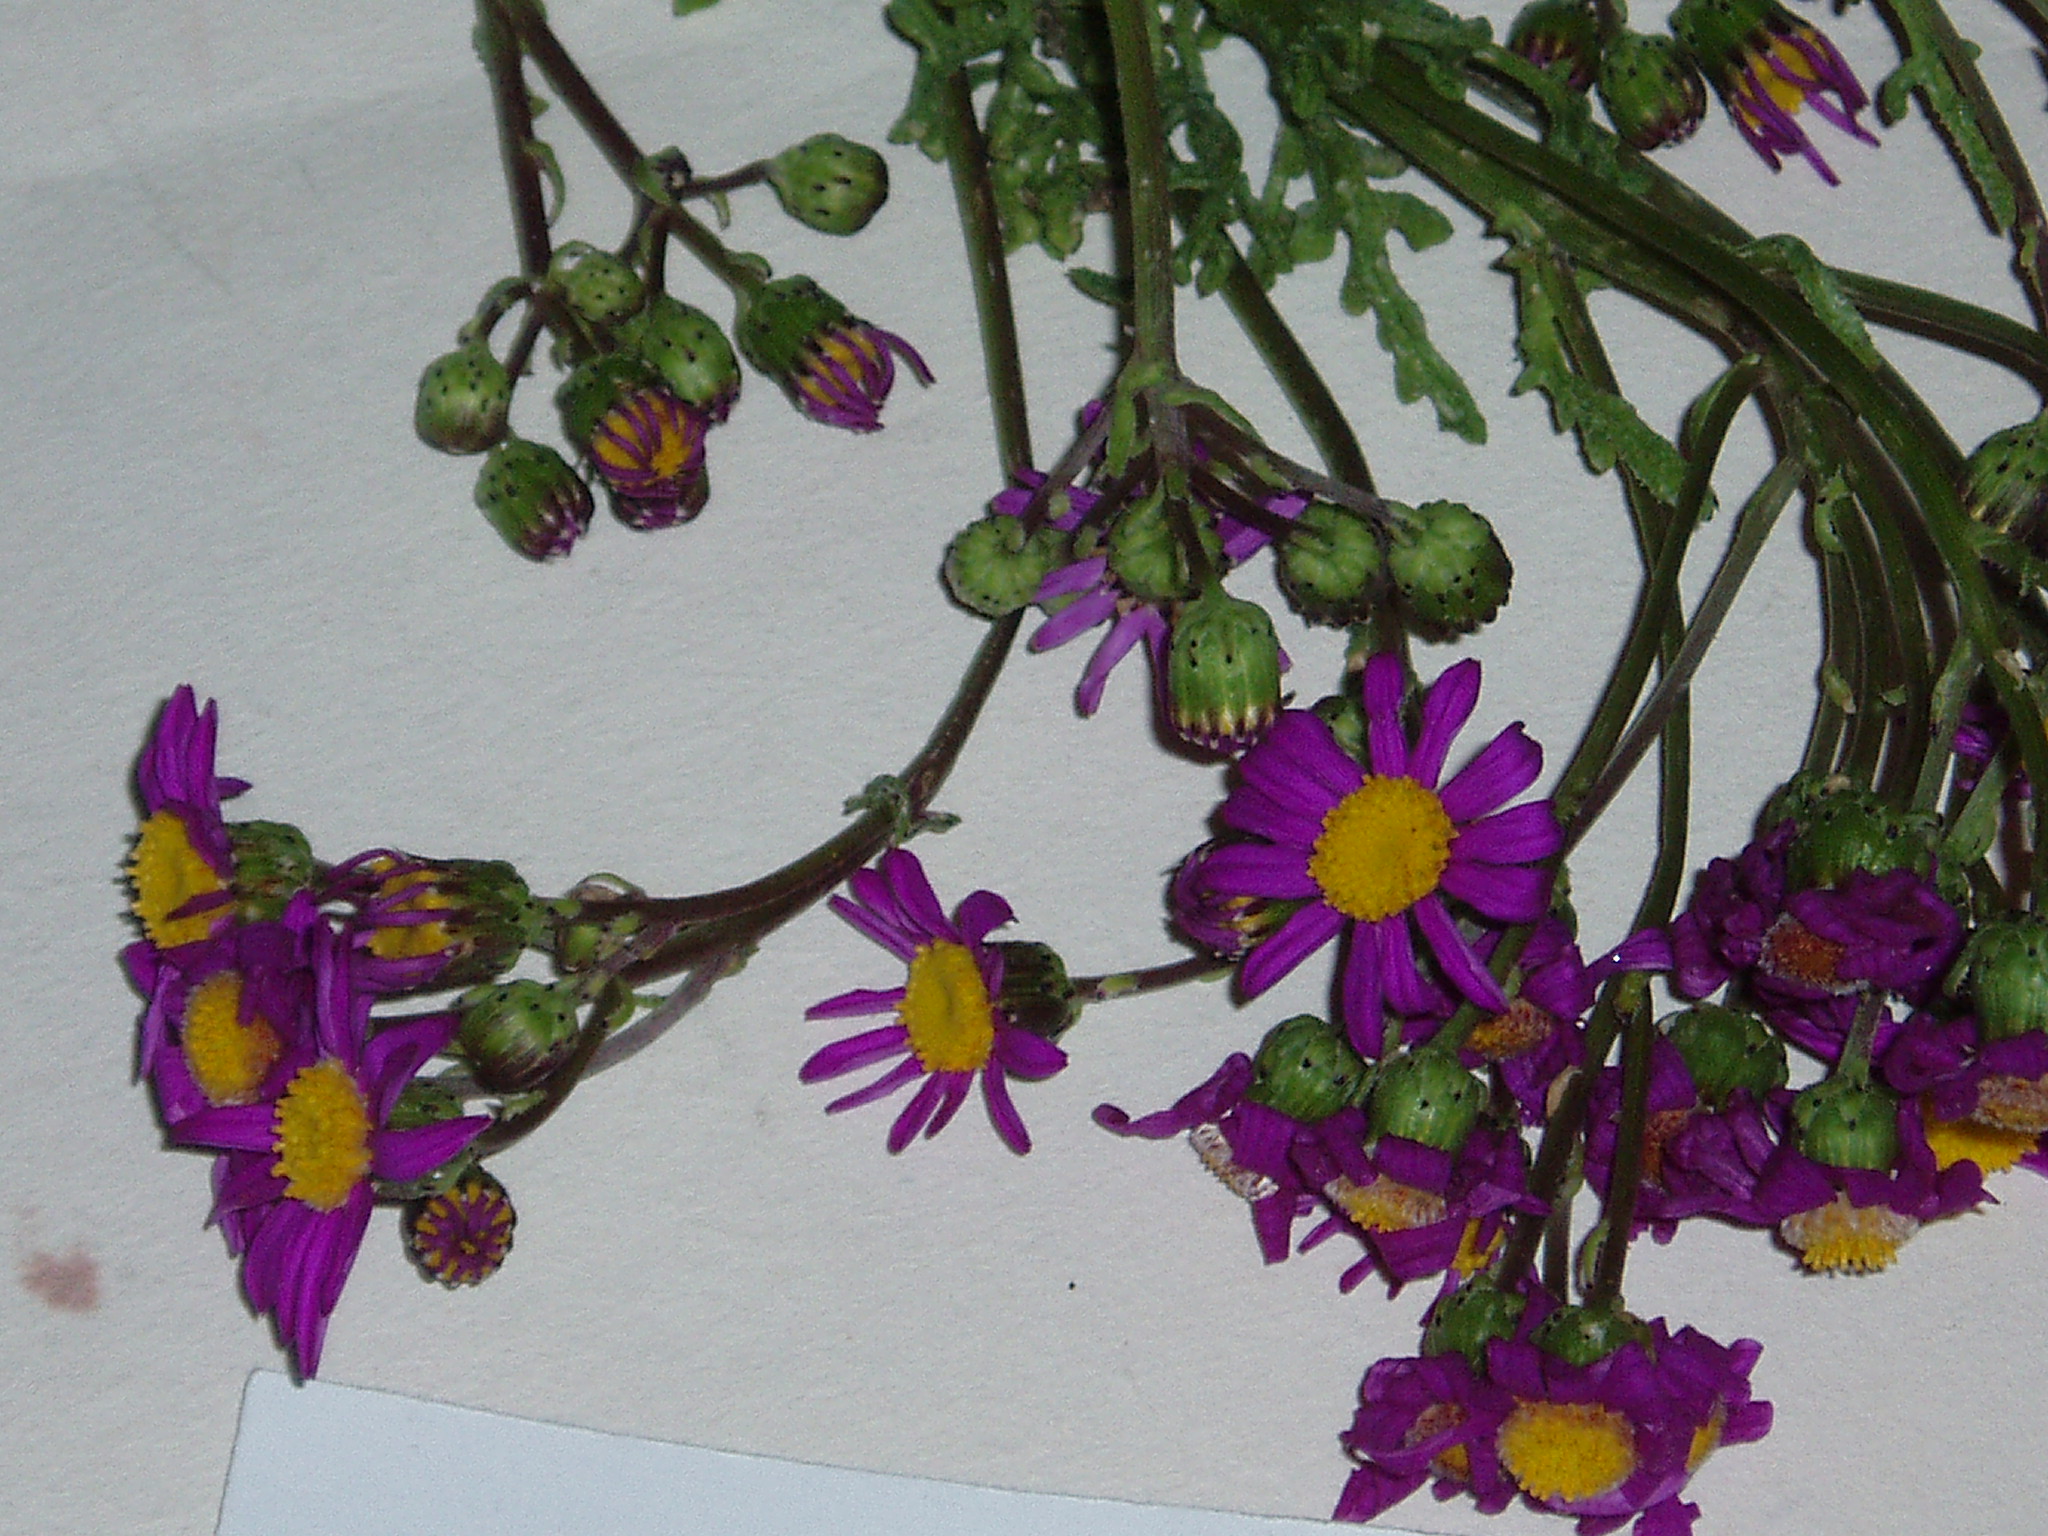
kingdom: Plantae
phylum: Tracheophyta
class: Magnoliopsida
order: Asterales
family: Asteraceae
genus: Senecio
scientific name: Senecio elegans
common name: Purple groundsel
